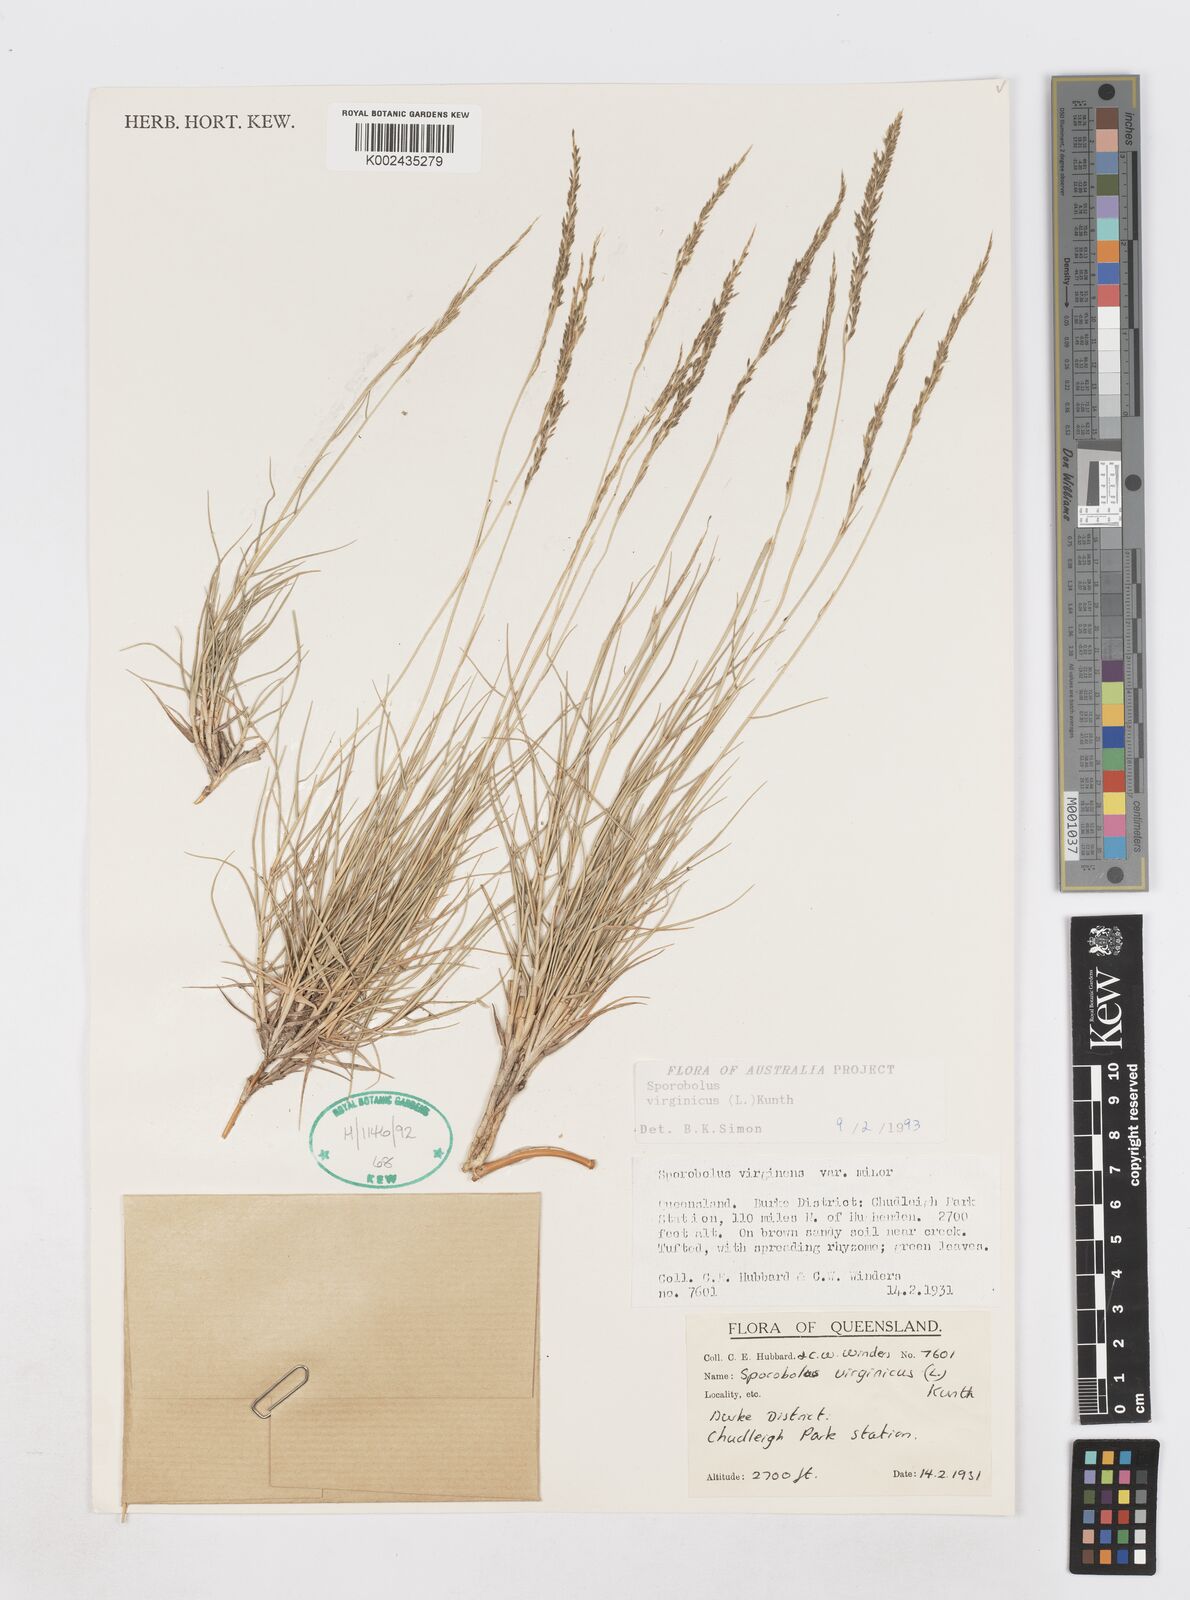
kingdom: Plantae
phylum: Tracheophyta
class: Liliopsida
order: Poales
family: Poaceae
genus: Sporobolus
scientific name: Sporobolus virginicus
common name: Beach dropseed
